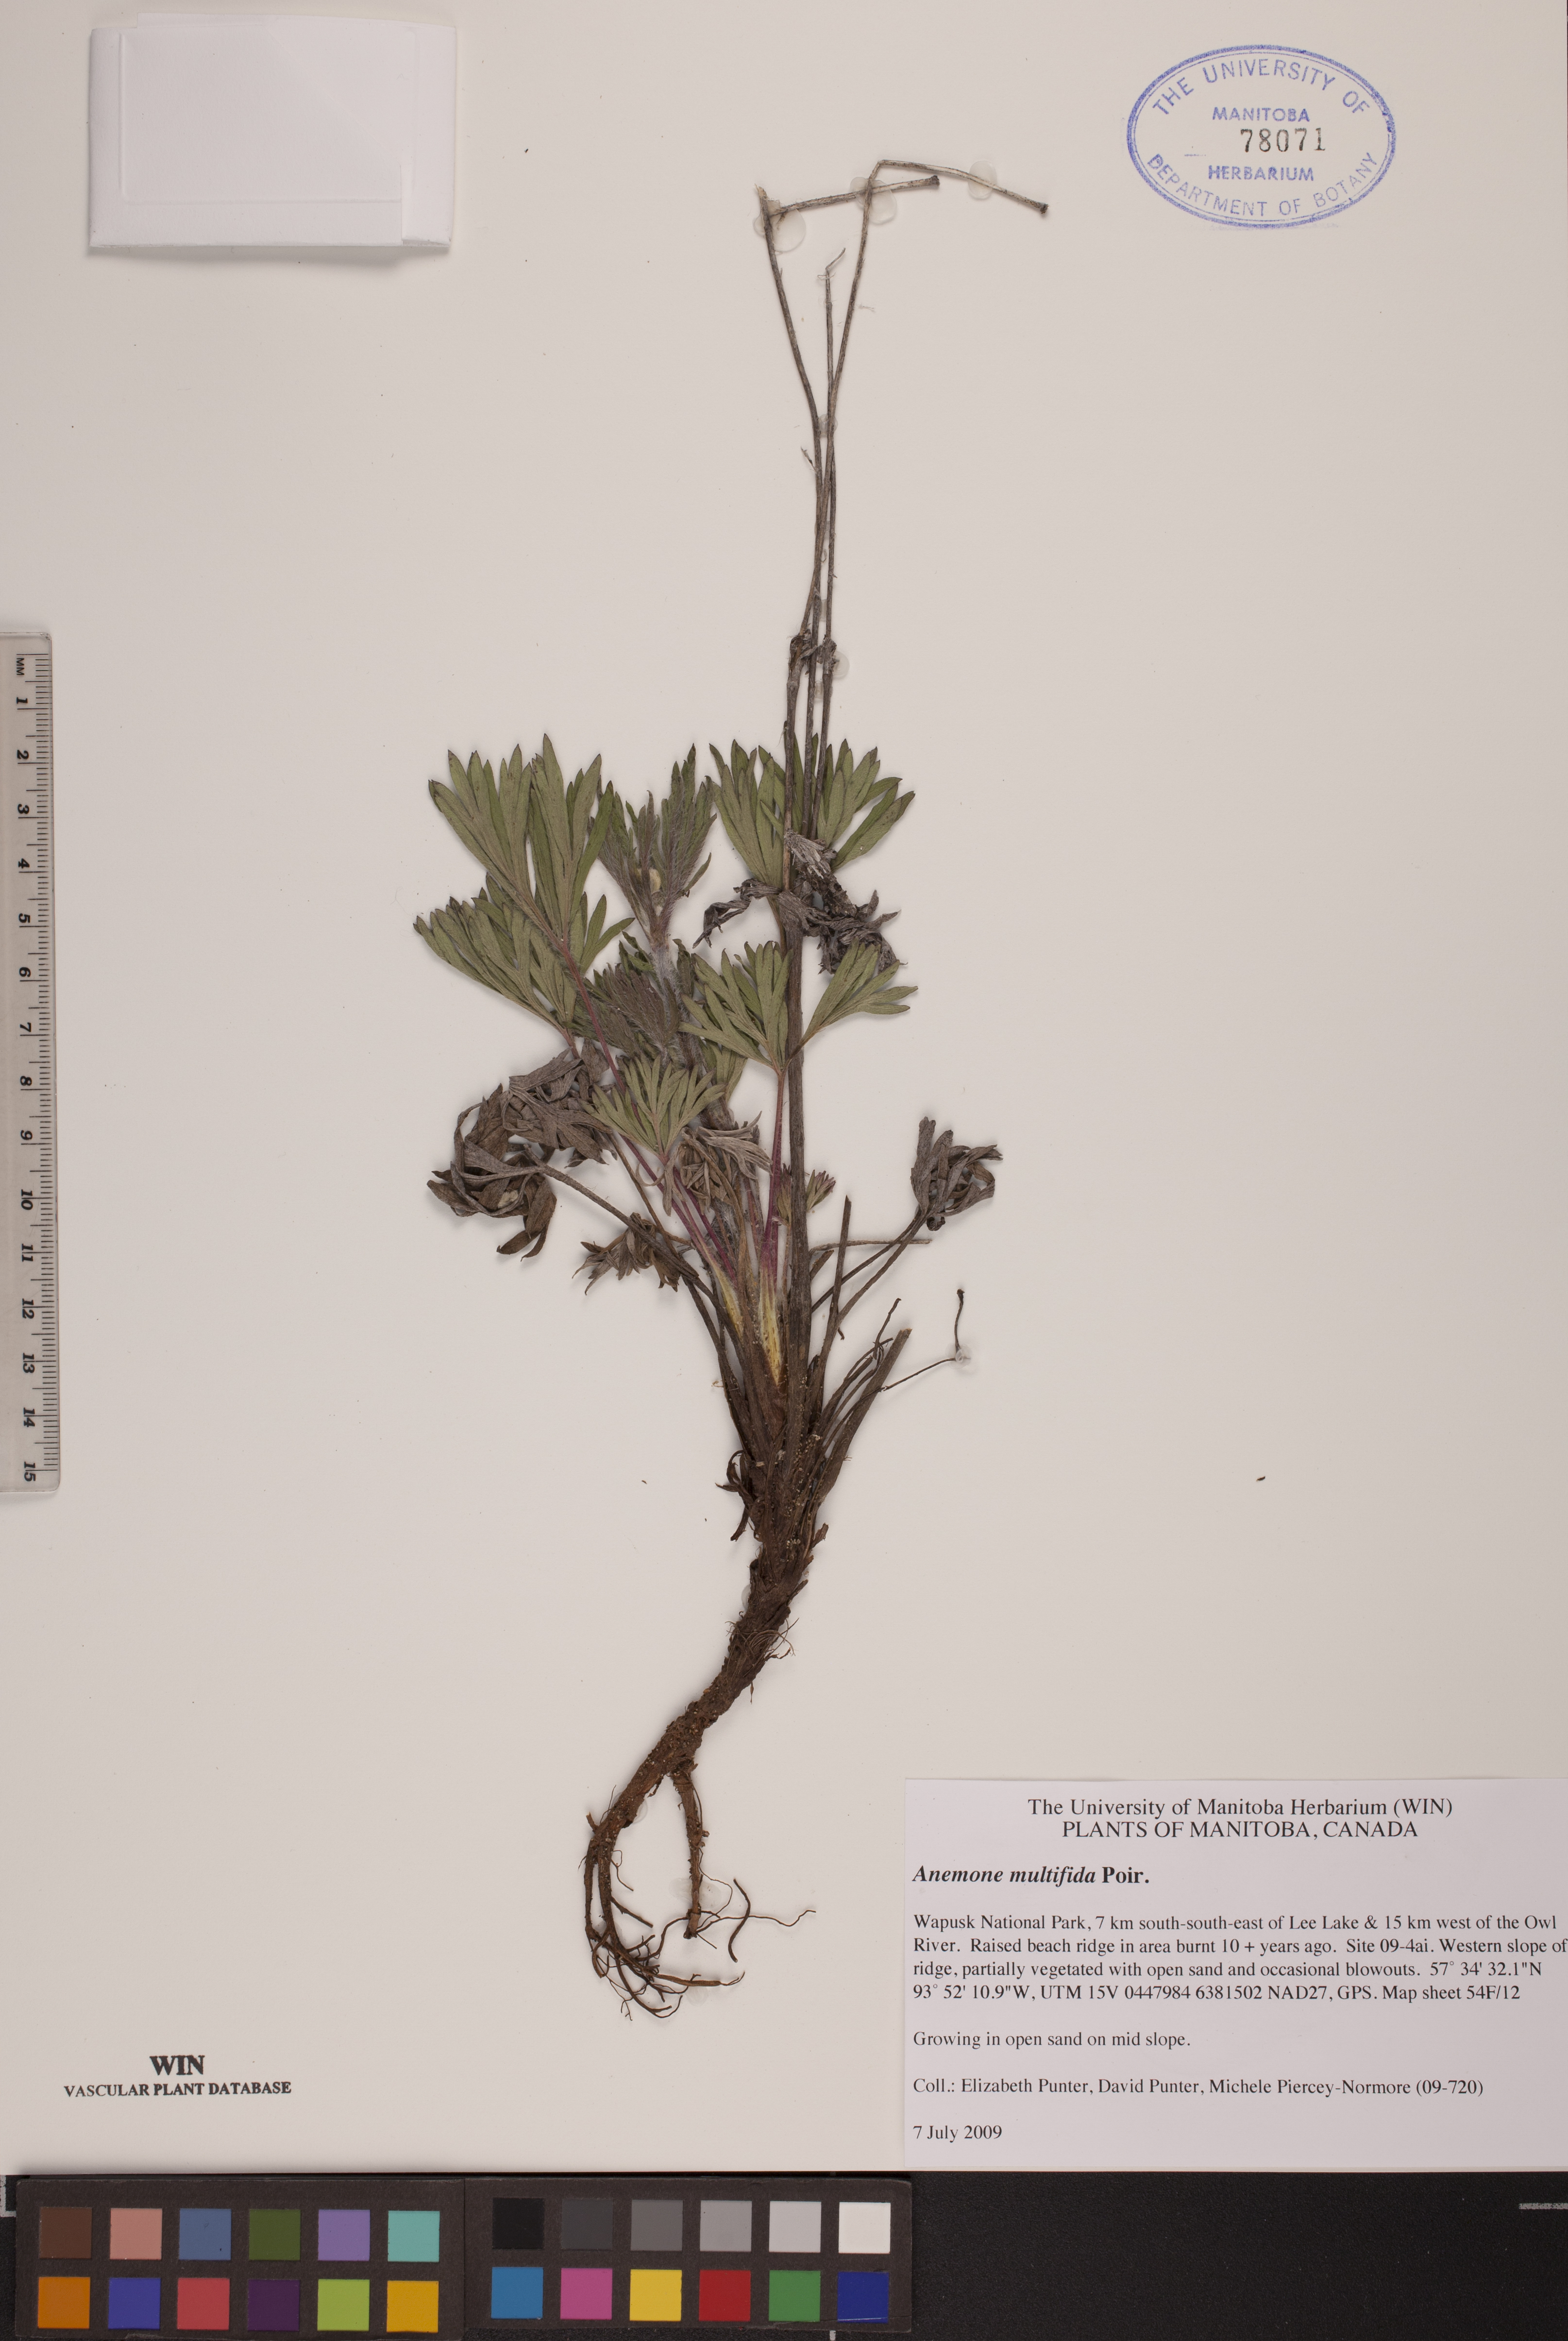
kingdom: Plantae
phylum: Tracheophyta
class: Magnoliopsida
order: Ranunculales
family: Ranunculaceae
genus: Anemone
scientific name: Anemone multifida
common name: Bird's-foot anemone
